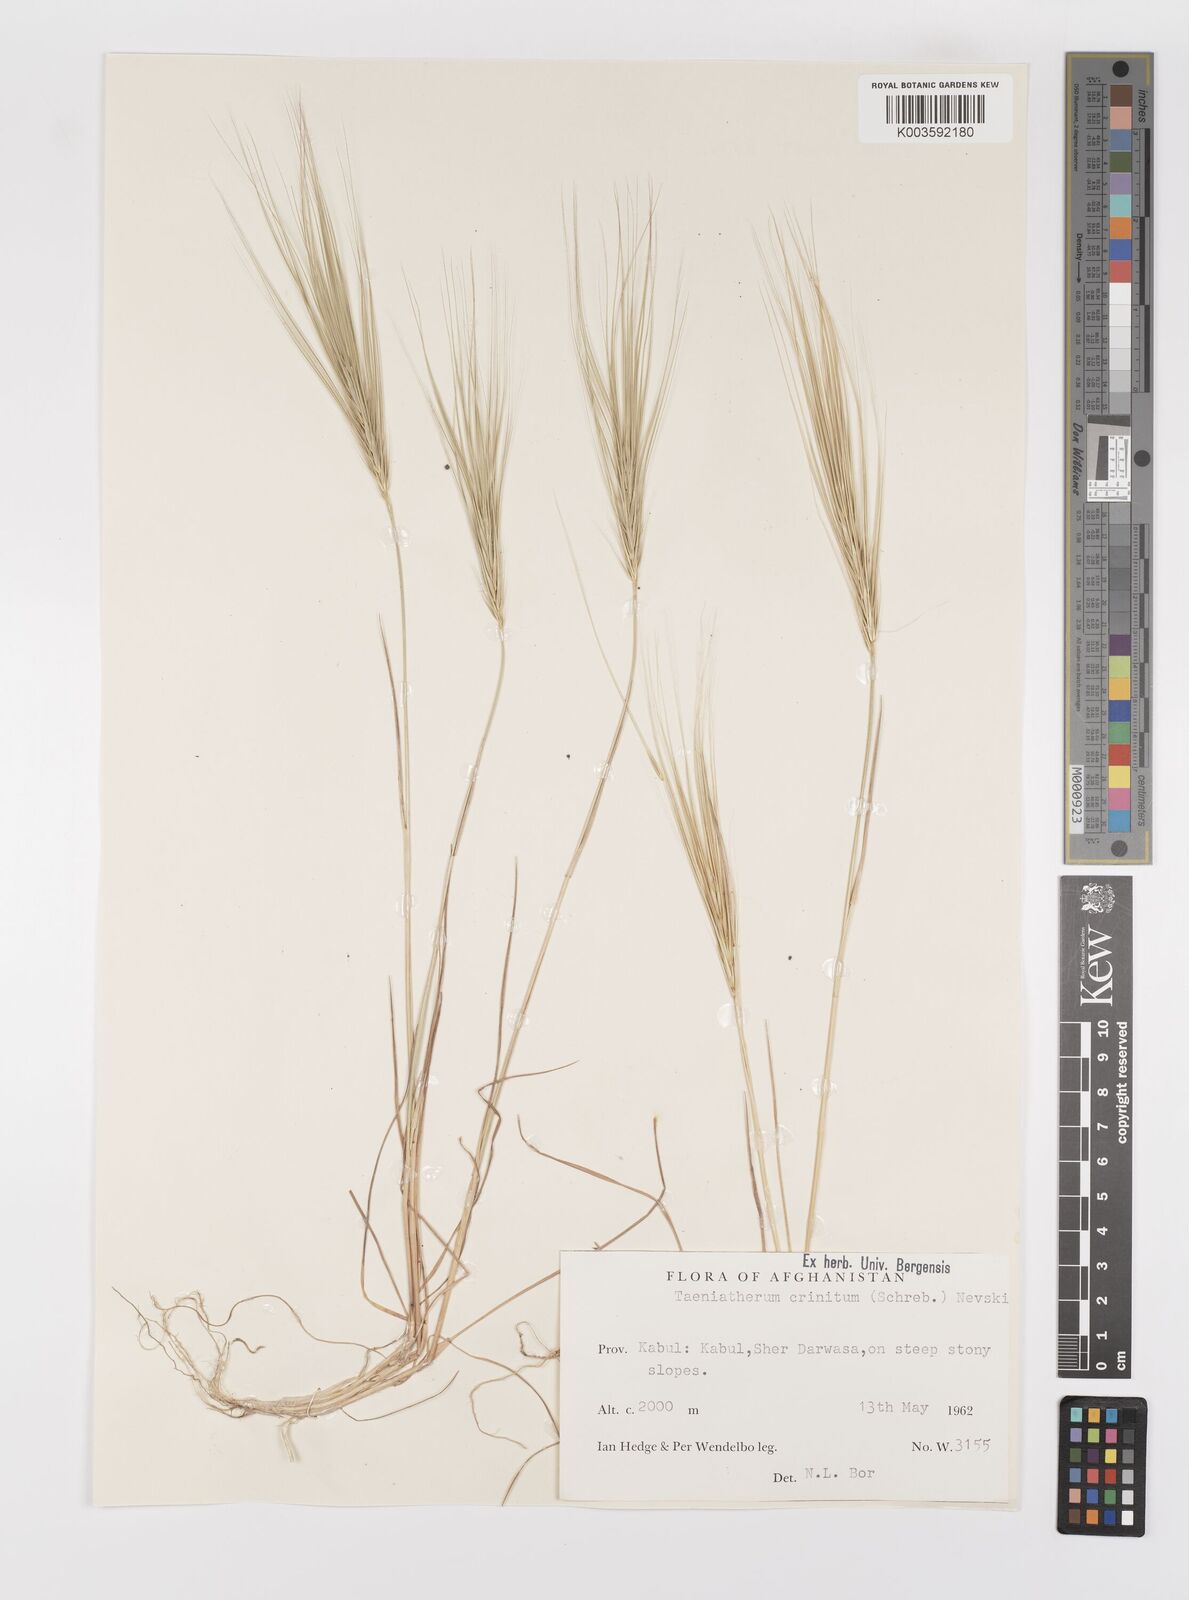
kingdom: Plantae
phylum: Tracheophyta
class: Liliopsida
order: Poales
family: Poaceae
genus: Taeniatherum
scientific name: Taeniatherum caput-medusae
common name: Medusahead
